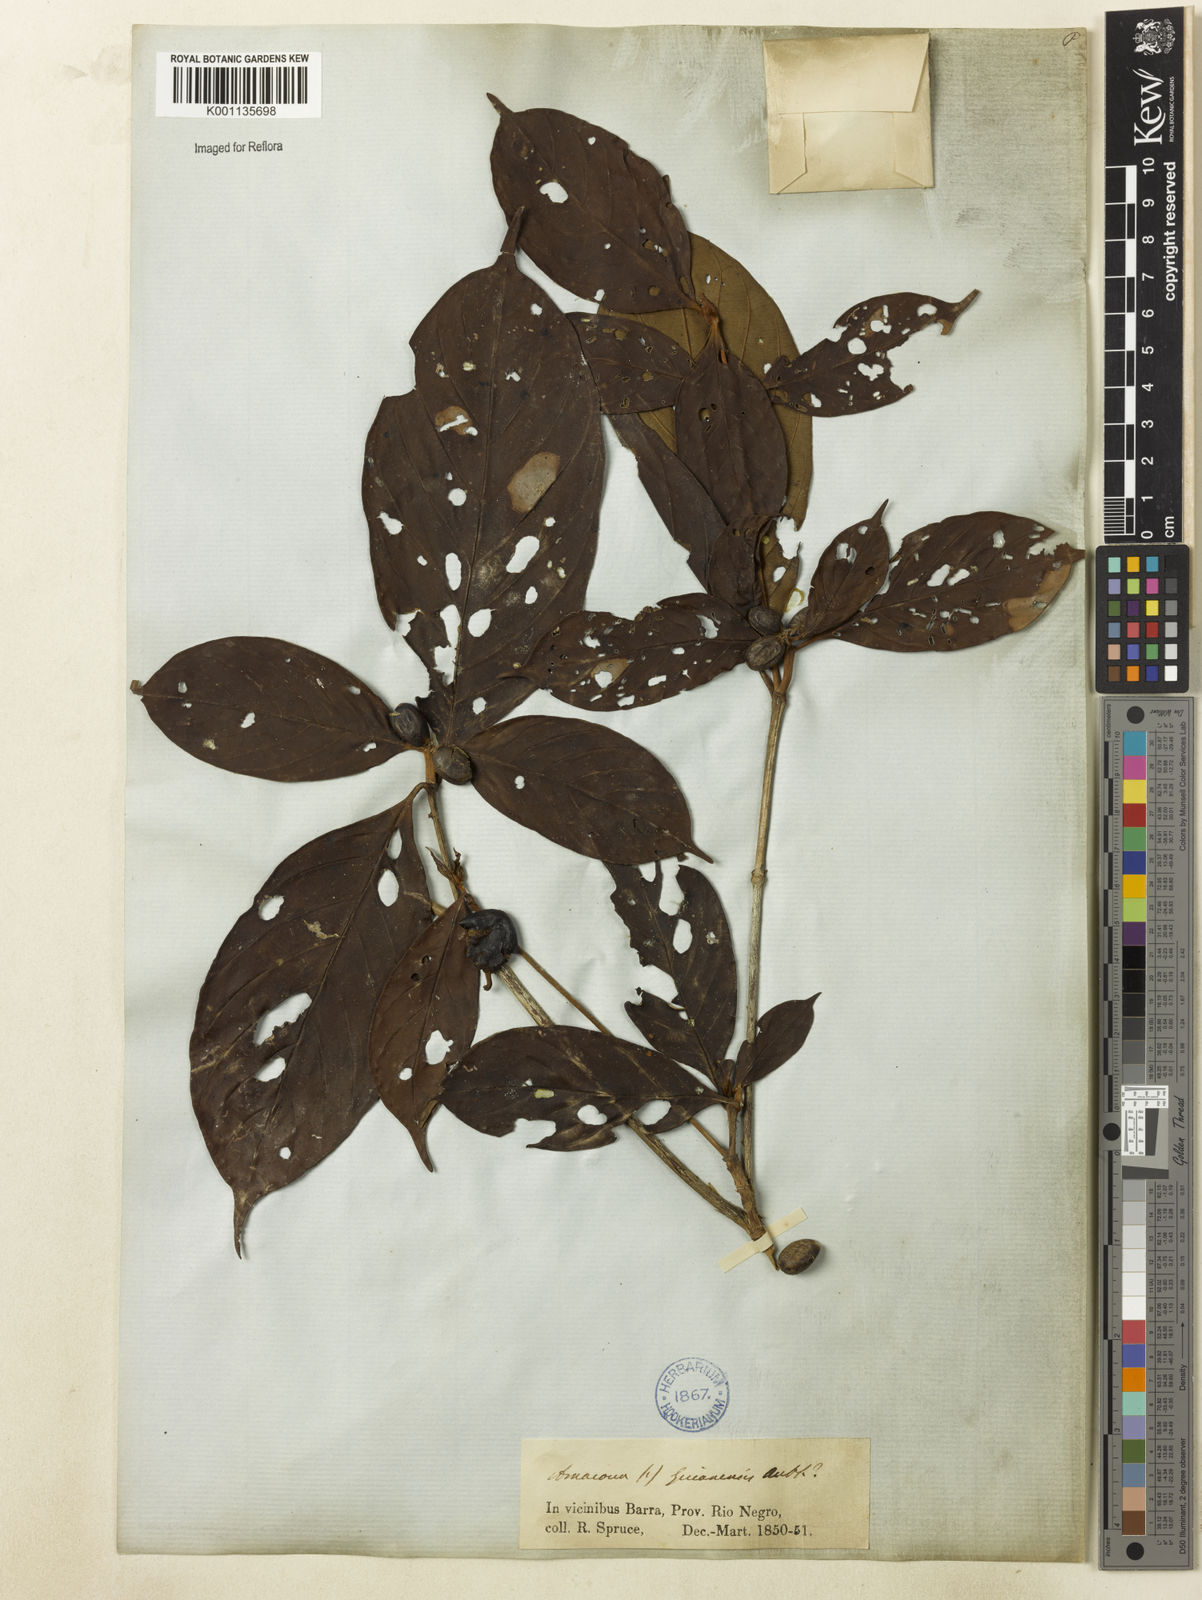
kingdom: Plantae
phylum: Tracheophyta
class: Magnoliopsida
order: Gentianales
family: Rubiaceae
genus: Amaioua
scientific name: Amaioua guianensis
